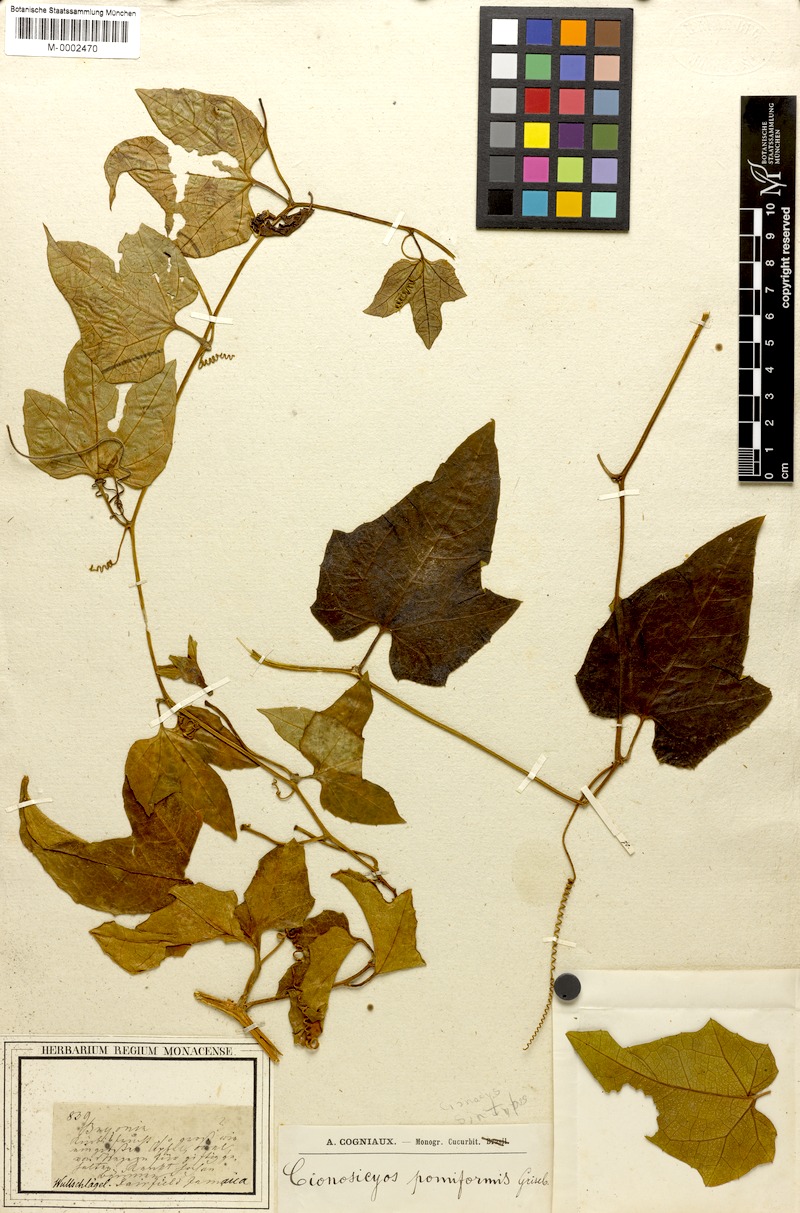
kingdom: Plantae
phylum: Tracheophyta
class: Magnoliopsida
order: Cucurbitales
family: Cucurbitaceae
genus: Cionosicyos
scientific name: Cionosicyos pomiformis
